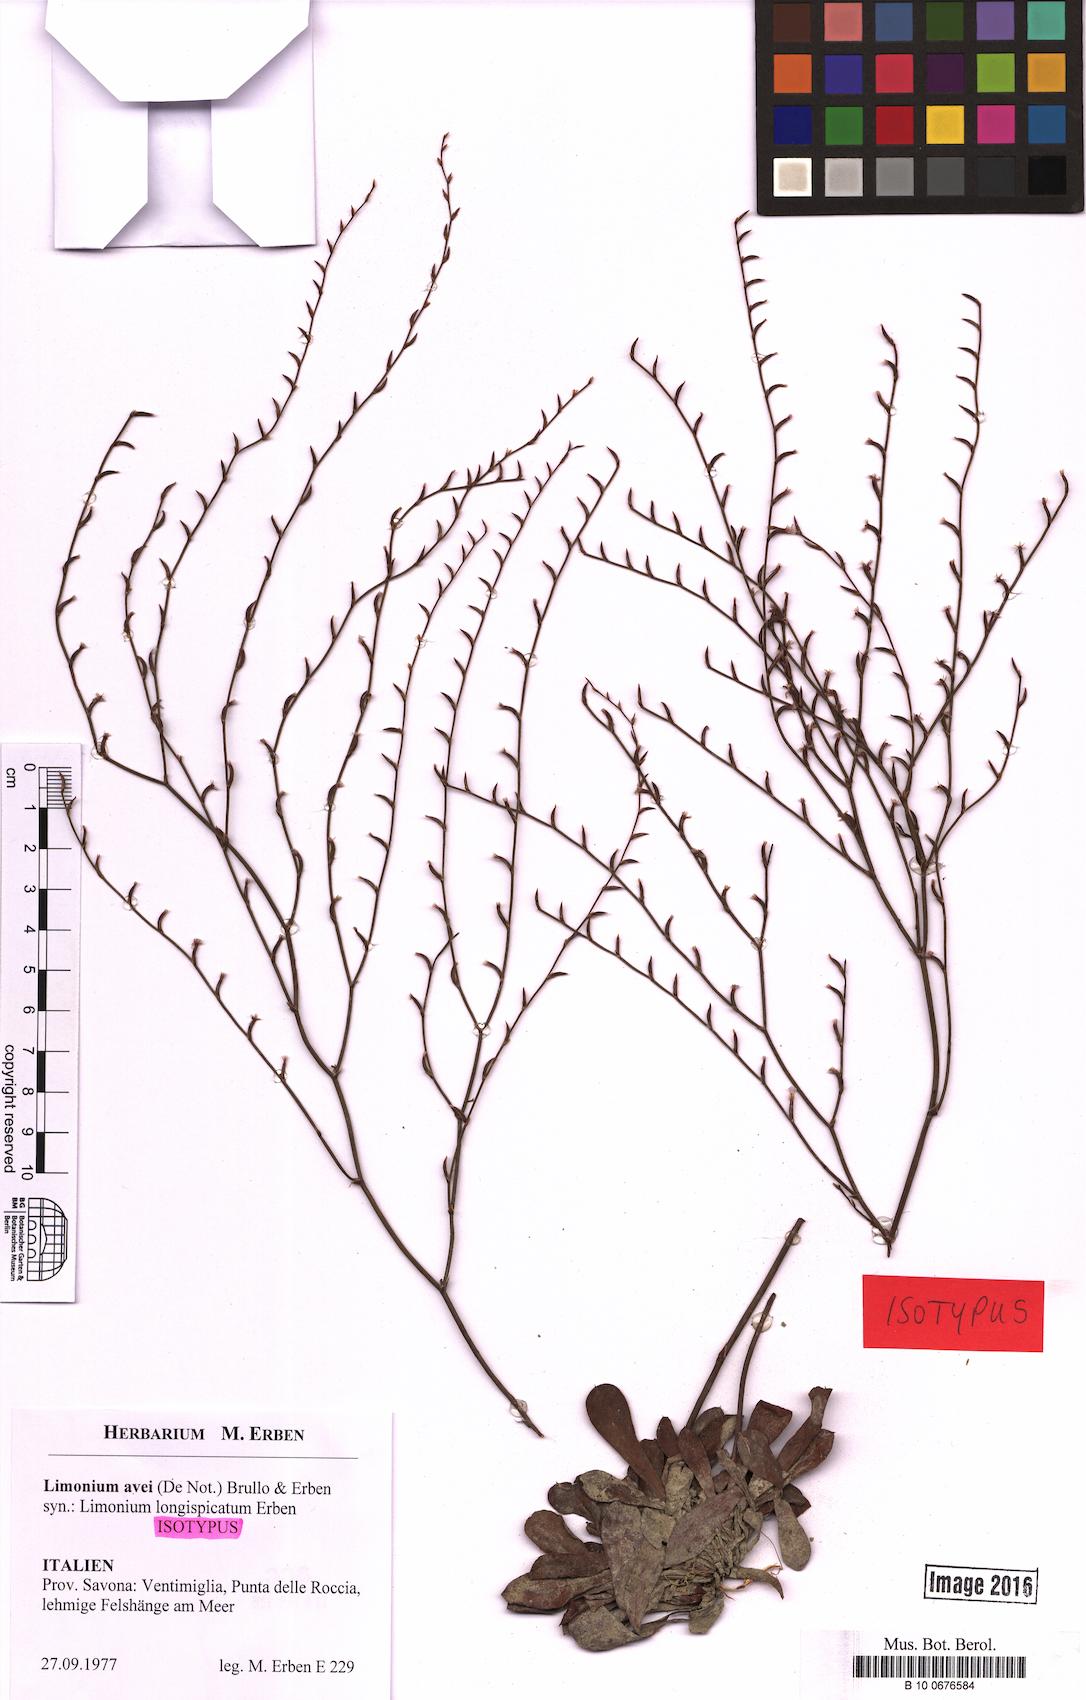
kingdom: Plantae
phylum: Tracheophyta
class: Magnoliopsida
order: Caryophyllales
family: Plumbaginaceae
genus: Limonium
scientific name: Limonium avei
